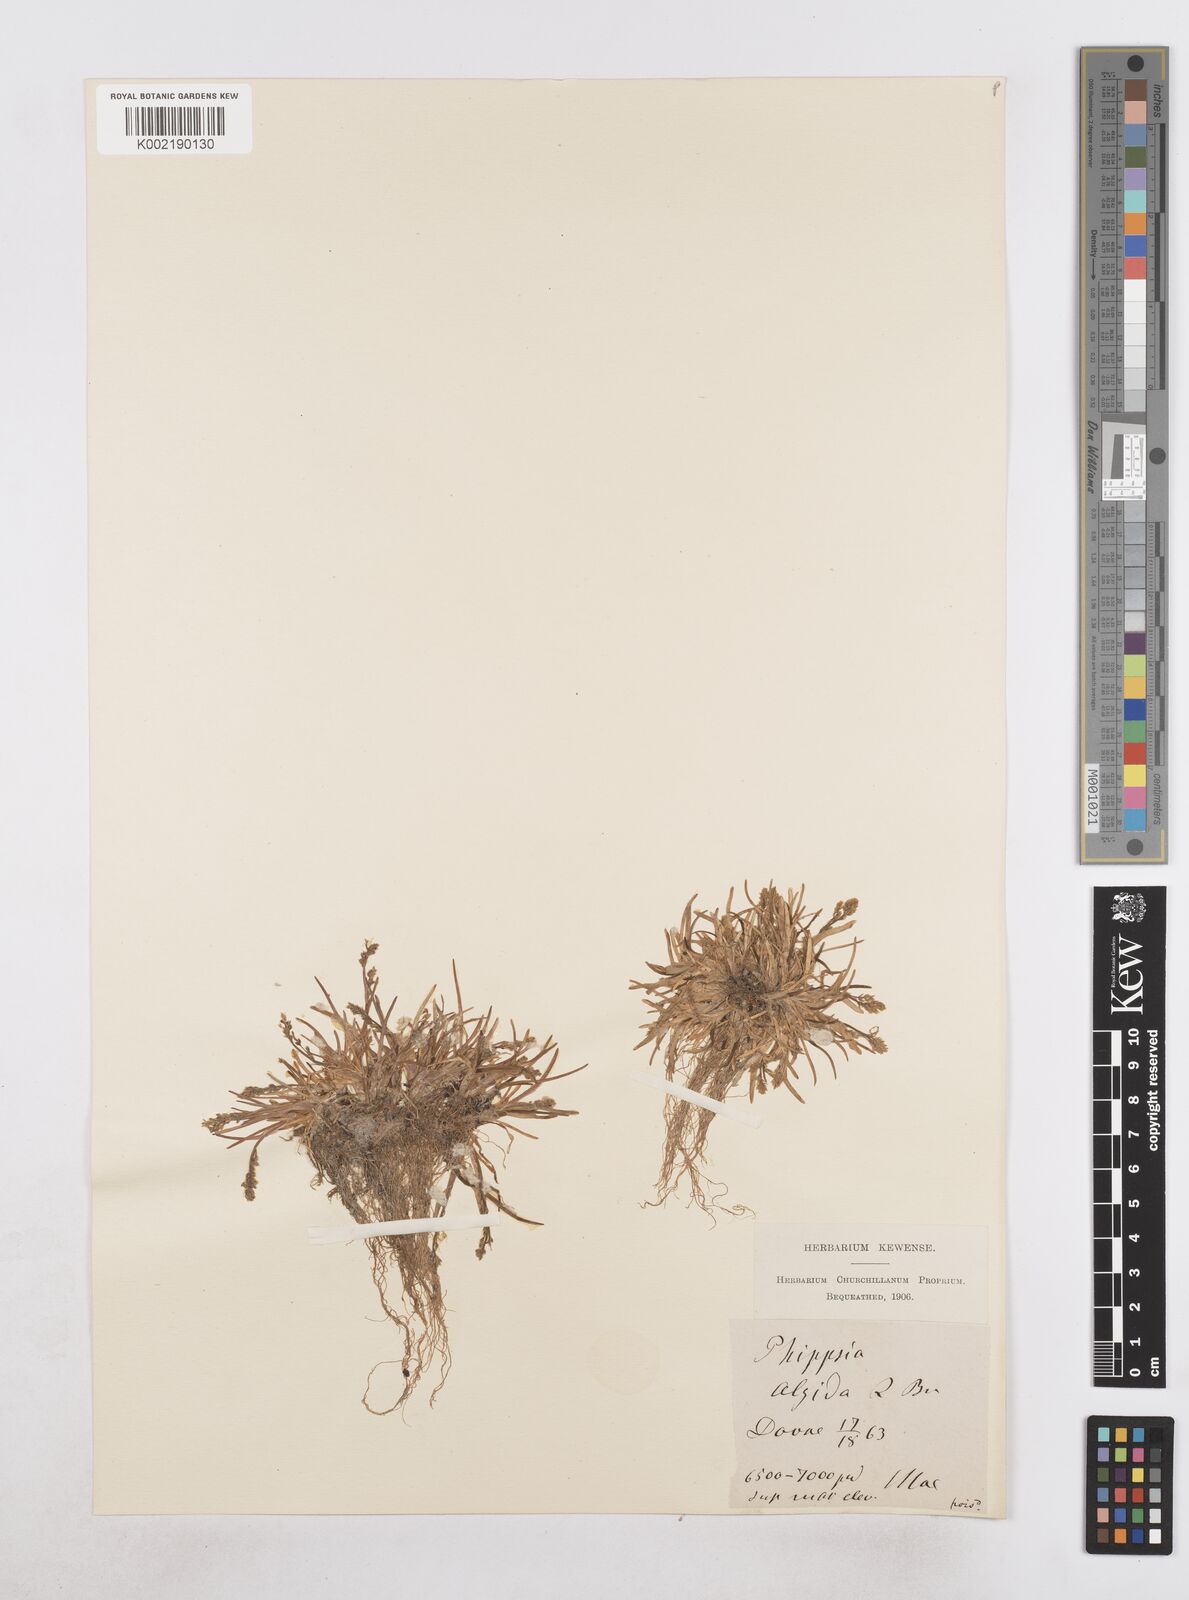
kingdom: Plantae
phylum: Tracheophyta
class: Liliopsida
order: Poales
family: Poaceae
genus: Phippsia
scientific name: Phippsia algida
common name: Ice grass
